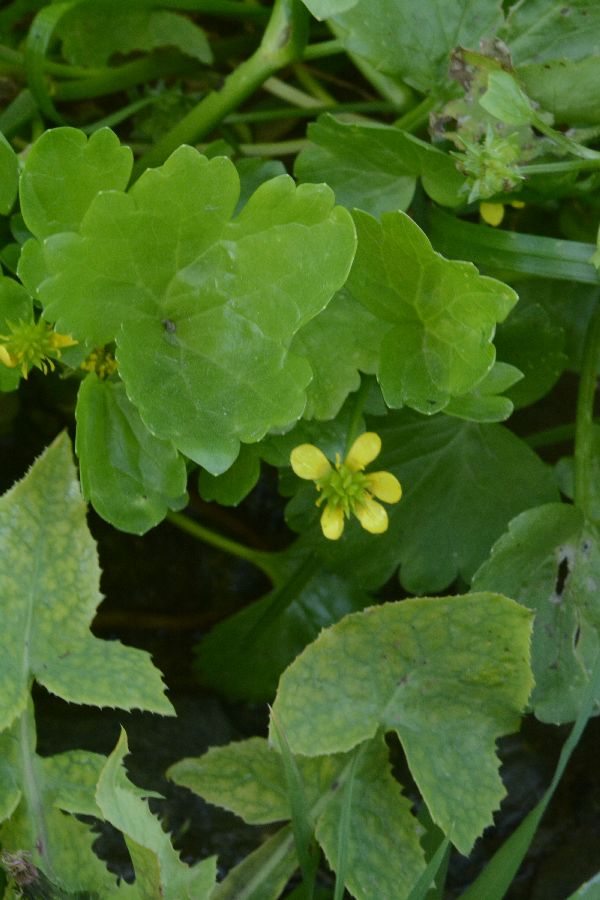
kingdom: Plantae
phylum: Tracheophyta
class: Magnoliopsida
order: Ranunculales
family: Ranunculaceae
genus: Ranunculus
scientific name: Ranunculus muricatus
